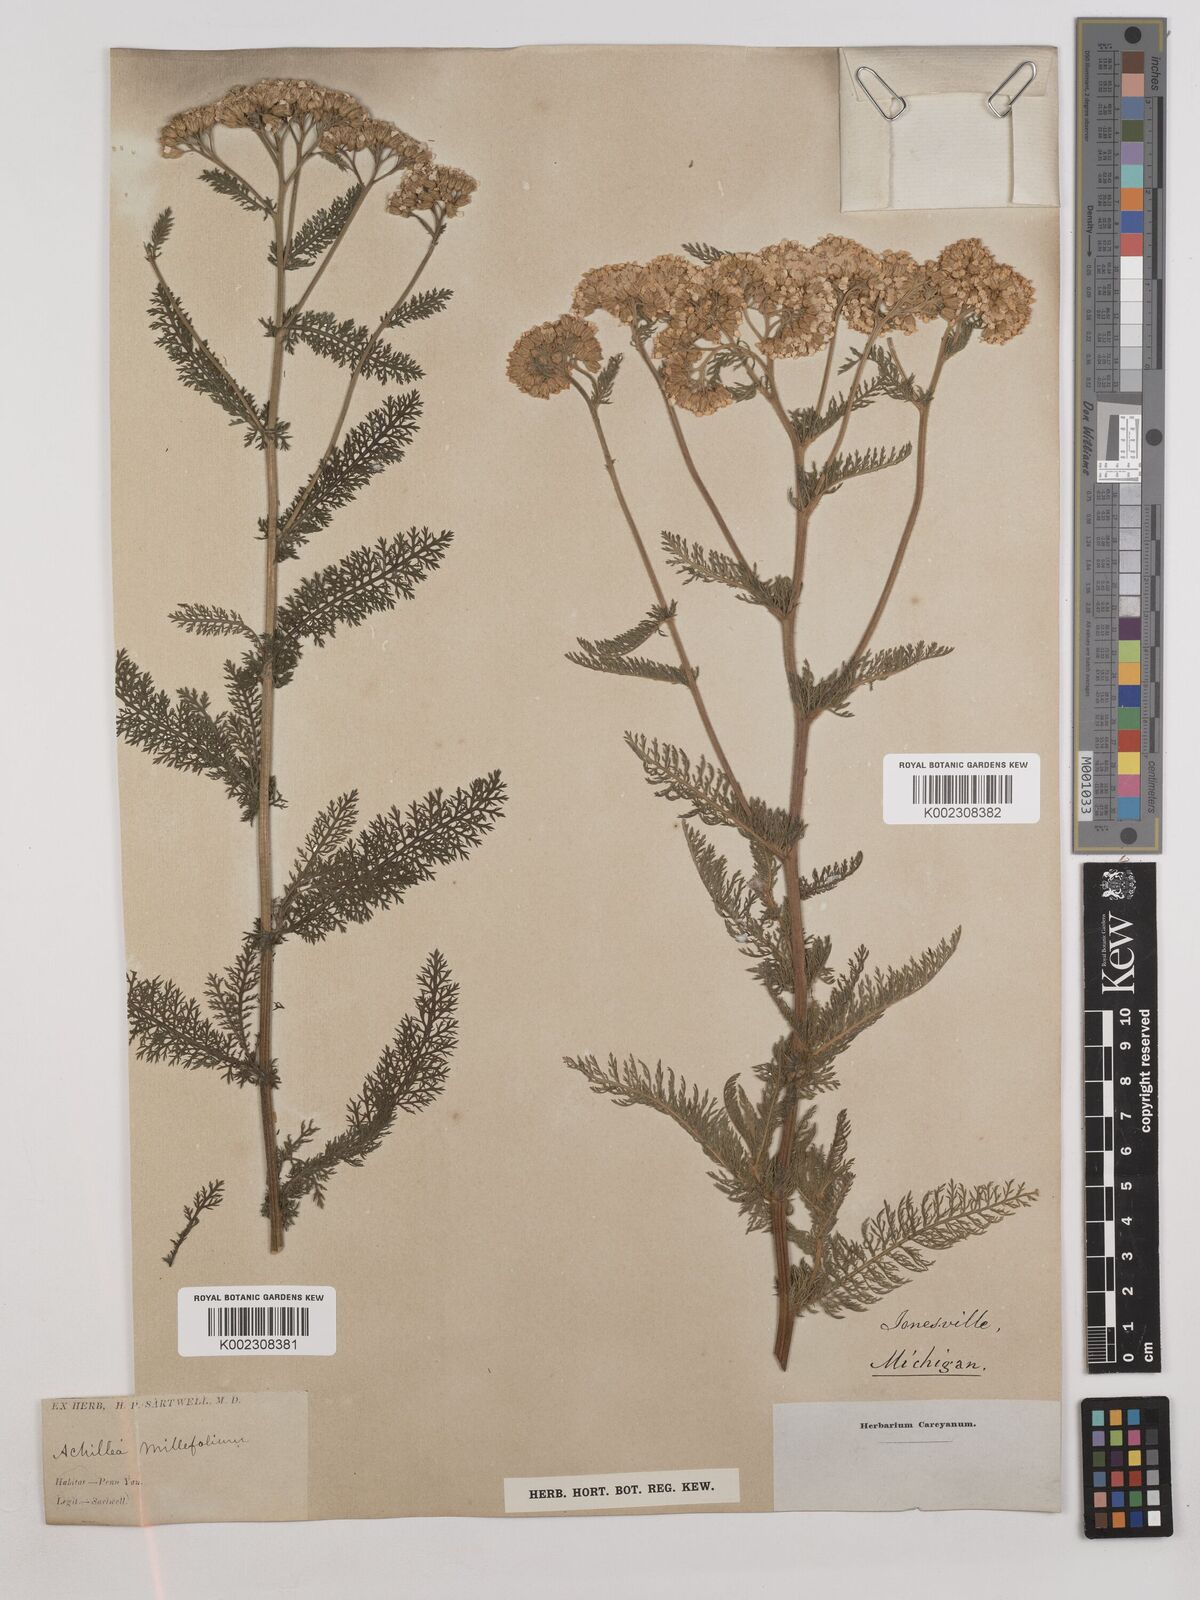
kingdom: Plantae
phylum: Tracheophyta
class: Magnoliopsida
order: Asterales
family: Asteraceae
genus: Achillea
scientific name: Achillea millefolium
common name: Yarrow
